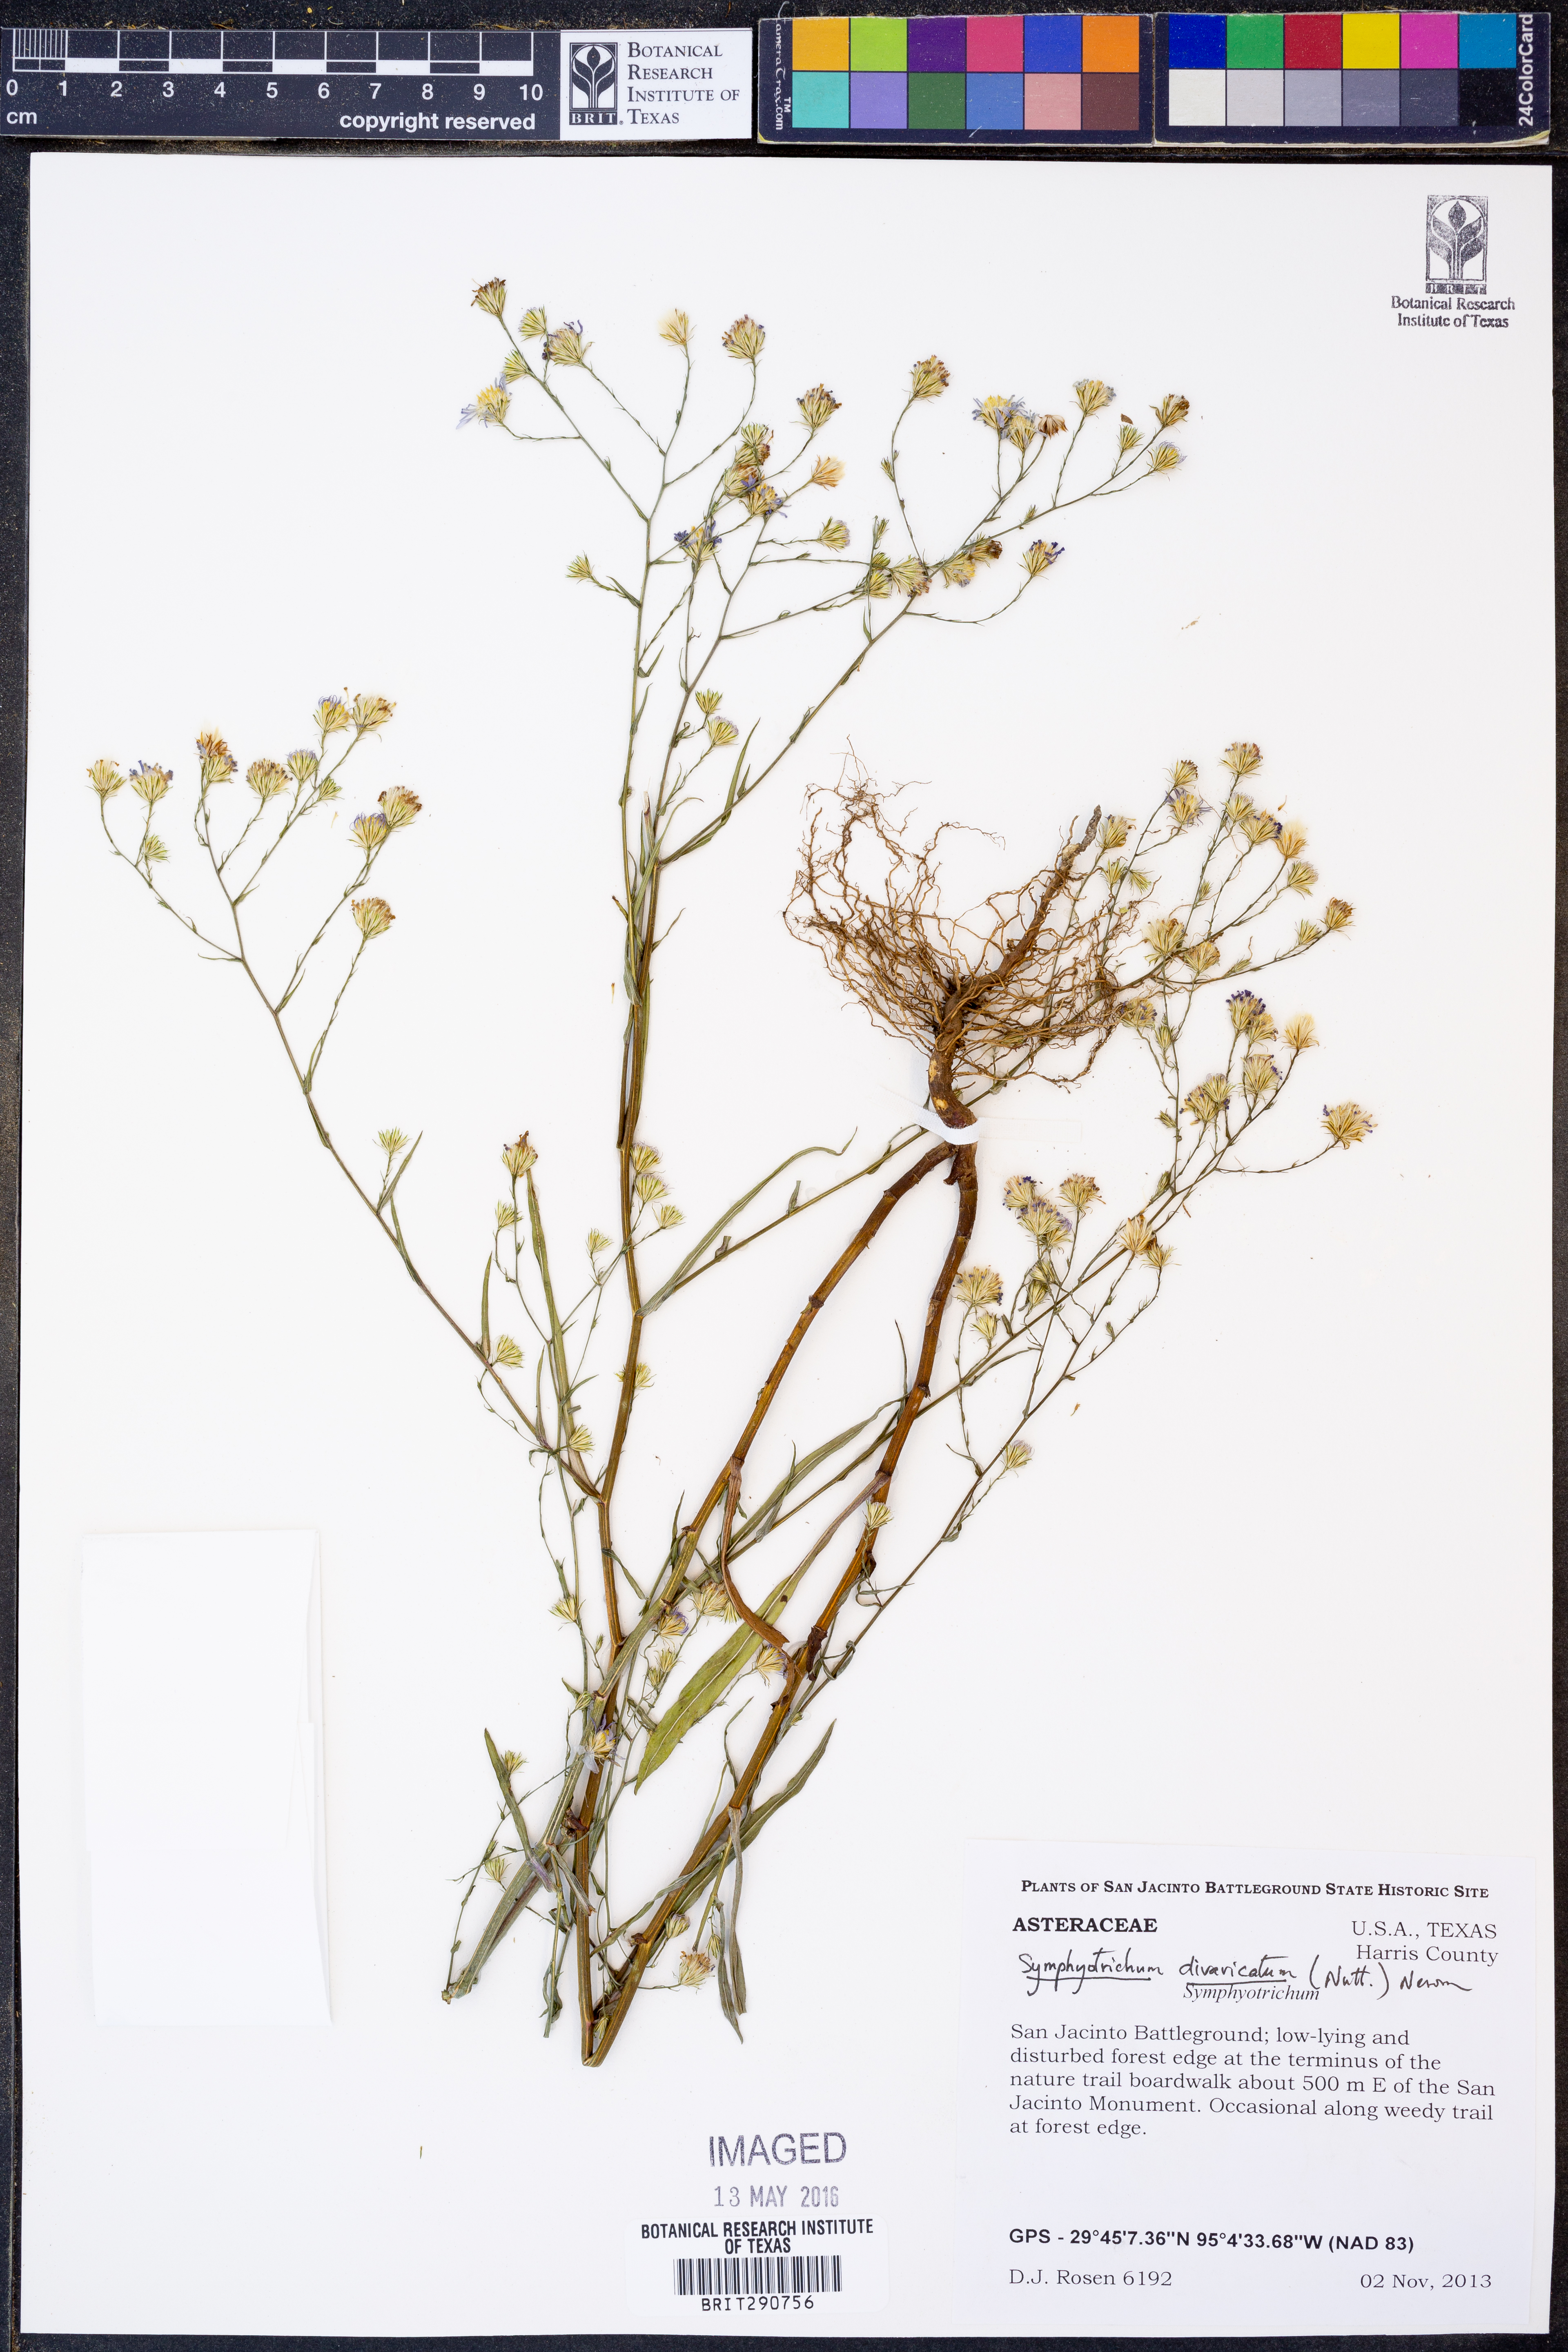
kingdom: Plantae
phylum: Tracheophyta
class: Magnoliopsida
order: Asterales
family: Asteraceae
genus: Symphyotrichum
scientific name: Symphyotrichum divaricatum
